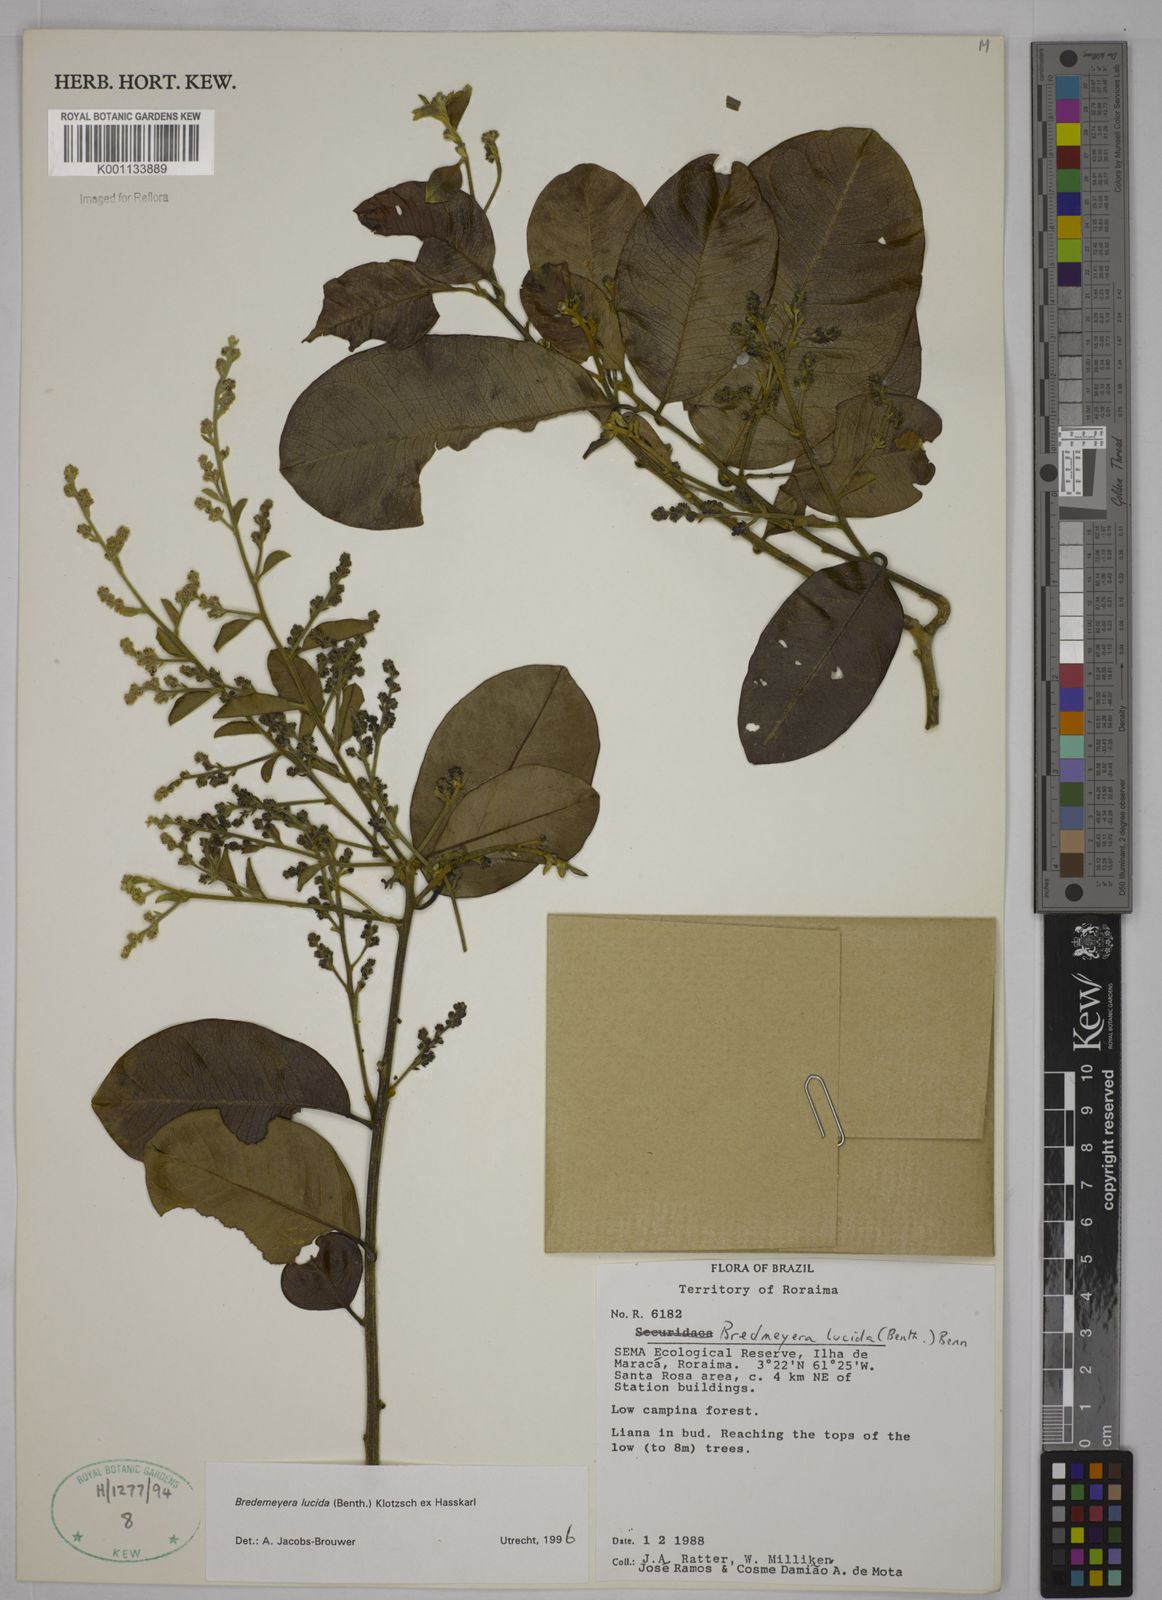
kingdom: Plantae
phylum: Tracheophyta
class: Magnoliopsida
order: Fabales
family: Polygalaceae
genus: Bredemeyera
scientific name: Bredemeyera lucida
